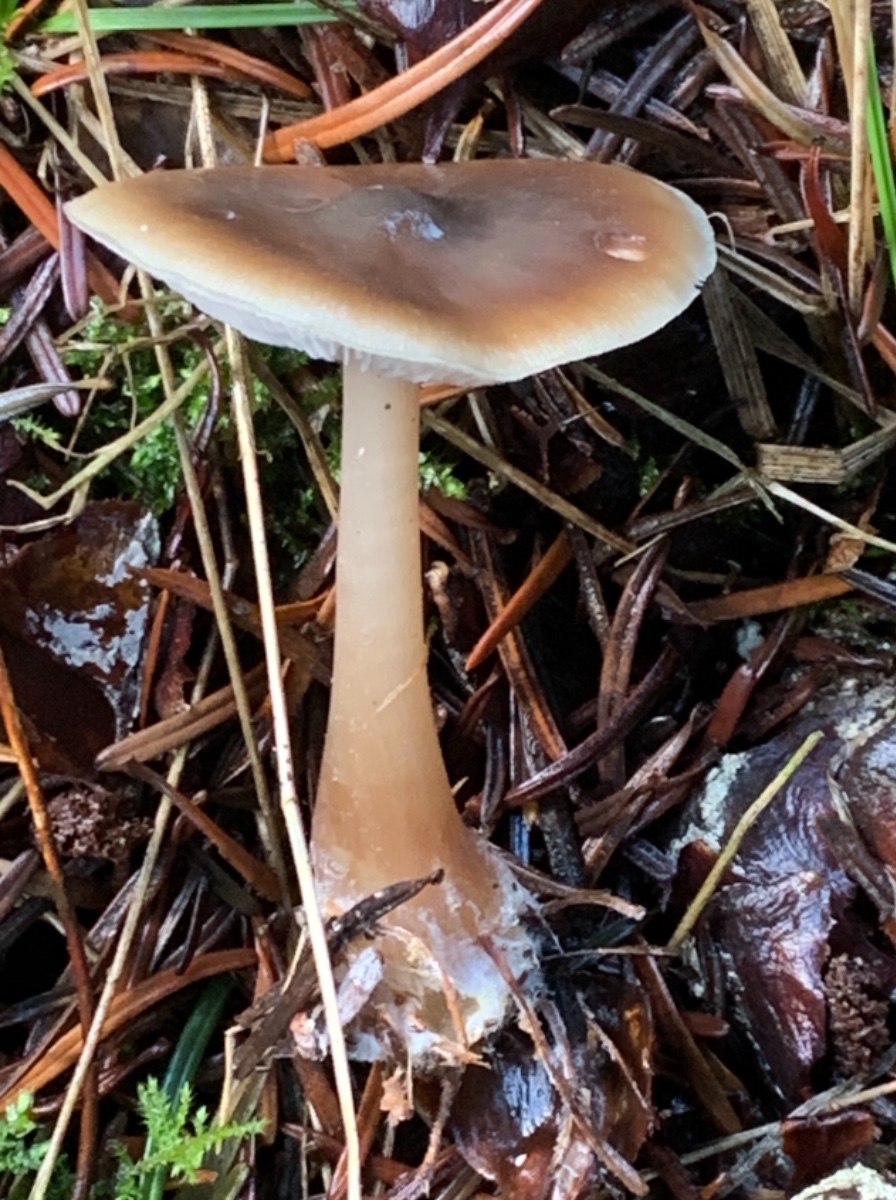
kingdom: Fungi
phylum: Basidiomycota
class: Agaricomycetes
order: Agaricales
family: Omphalotaceae
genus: Rhodocollybia
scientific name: Rhodocollybia asema
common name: horngrå fladhat
